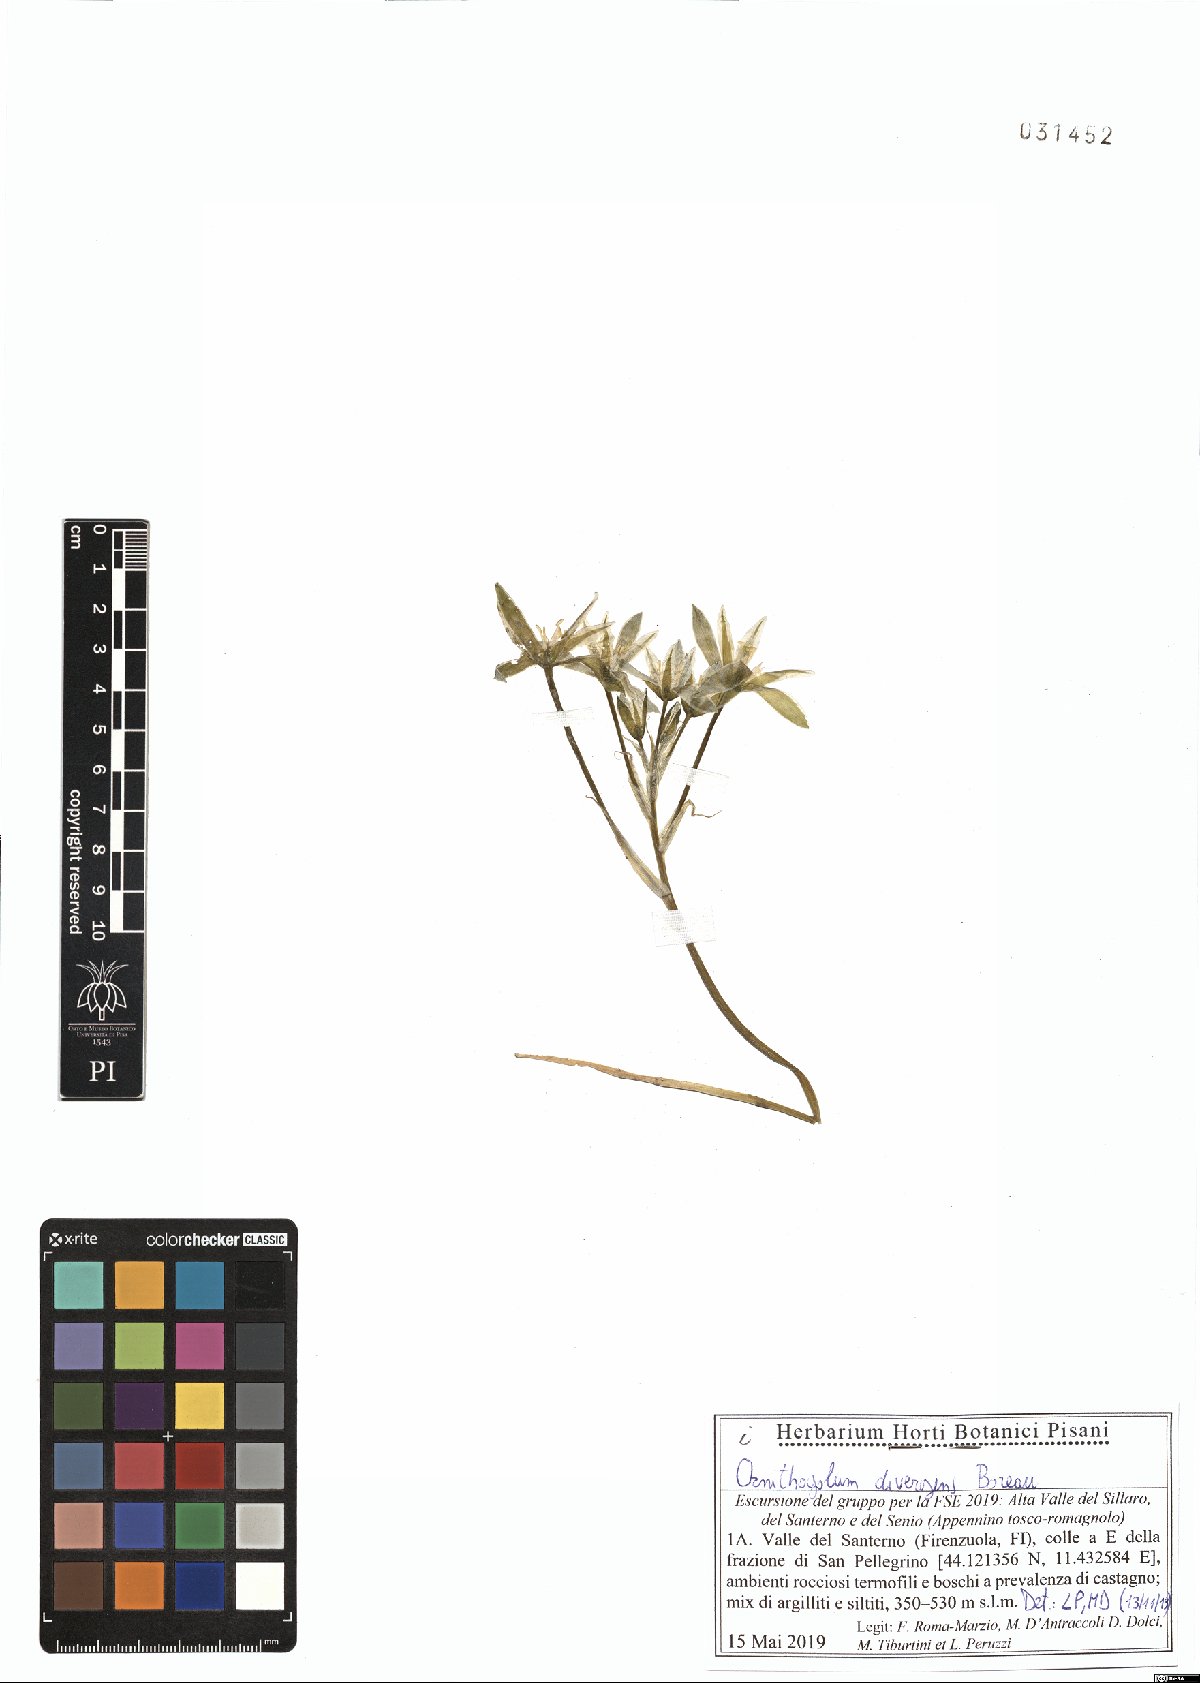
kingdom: Plantae
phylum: Tracheophyta
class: Liliopsida
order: Asparagales
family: Asparagaceae
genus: Ornithogalum
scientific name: Ornithogalum divergens
